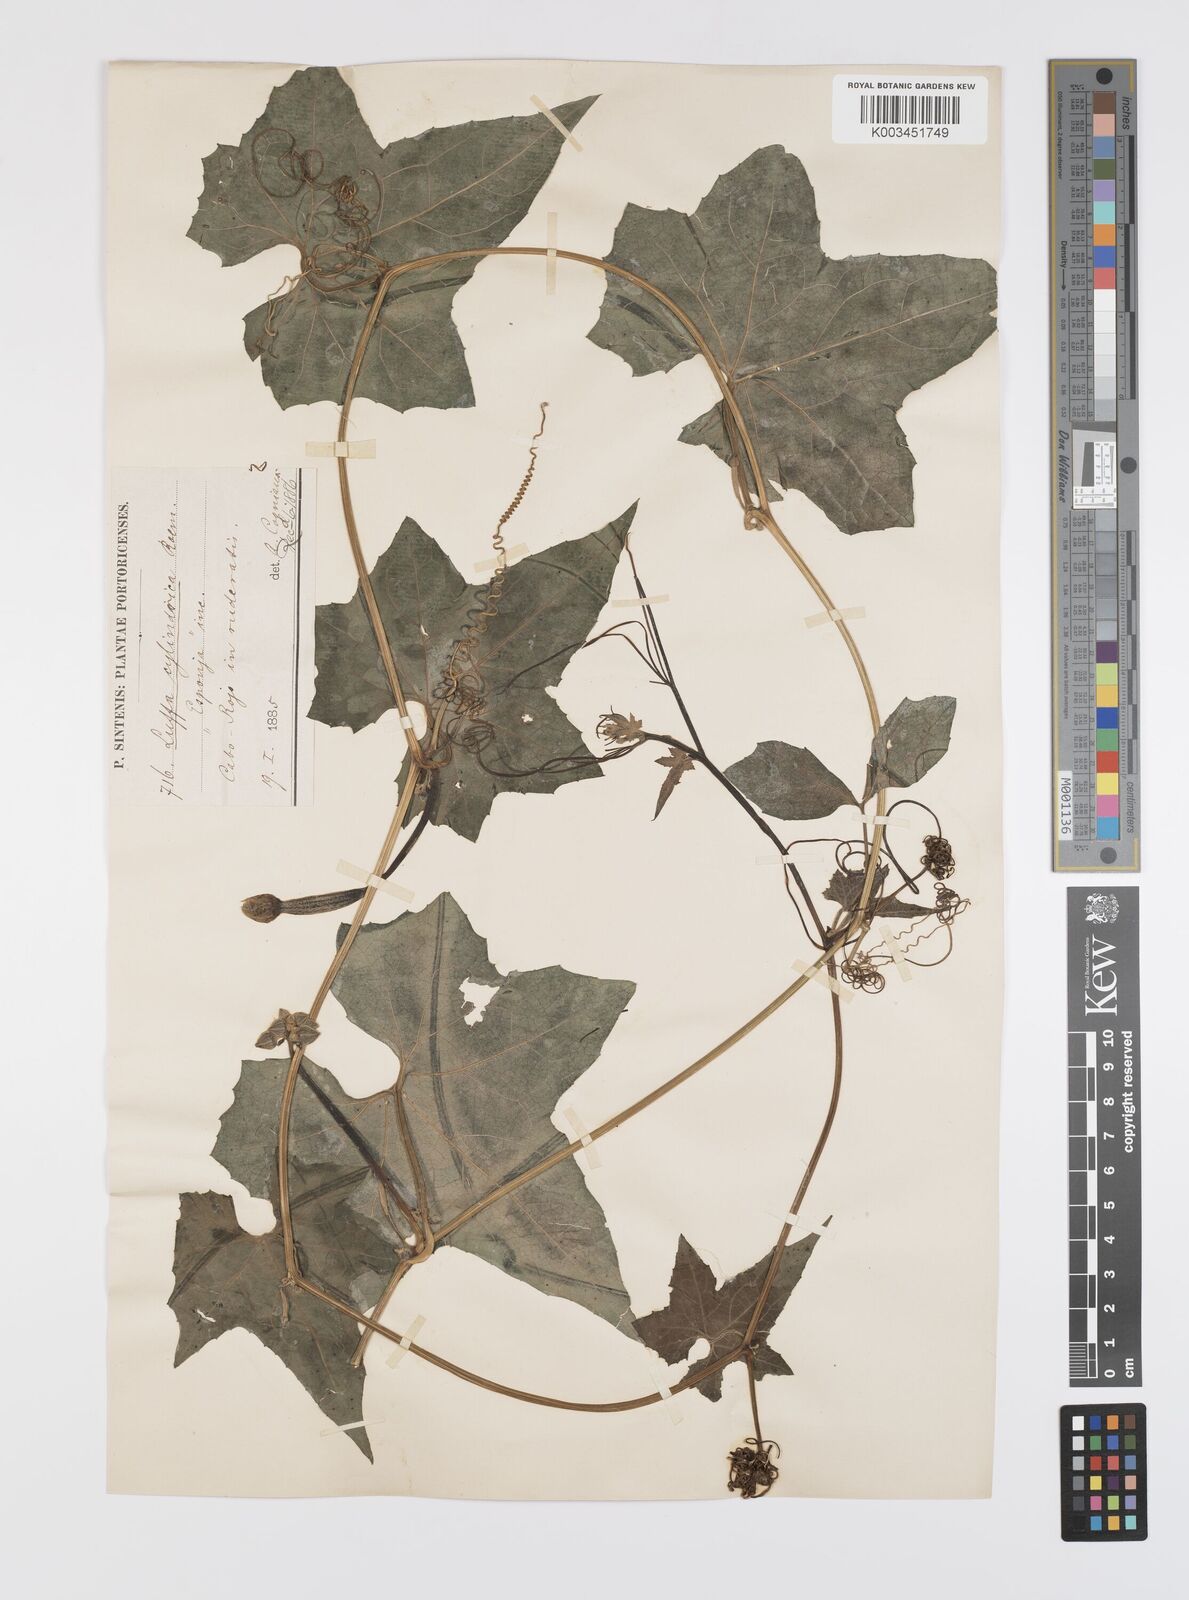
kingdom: Plantae
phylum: Tracheophyta
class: Magnoliopsida
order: Cucurbitales
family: Cucurbitaceae
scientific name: Cucurbitaceae
